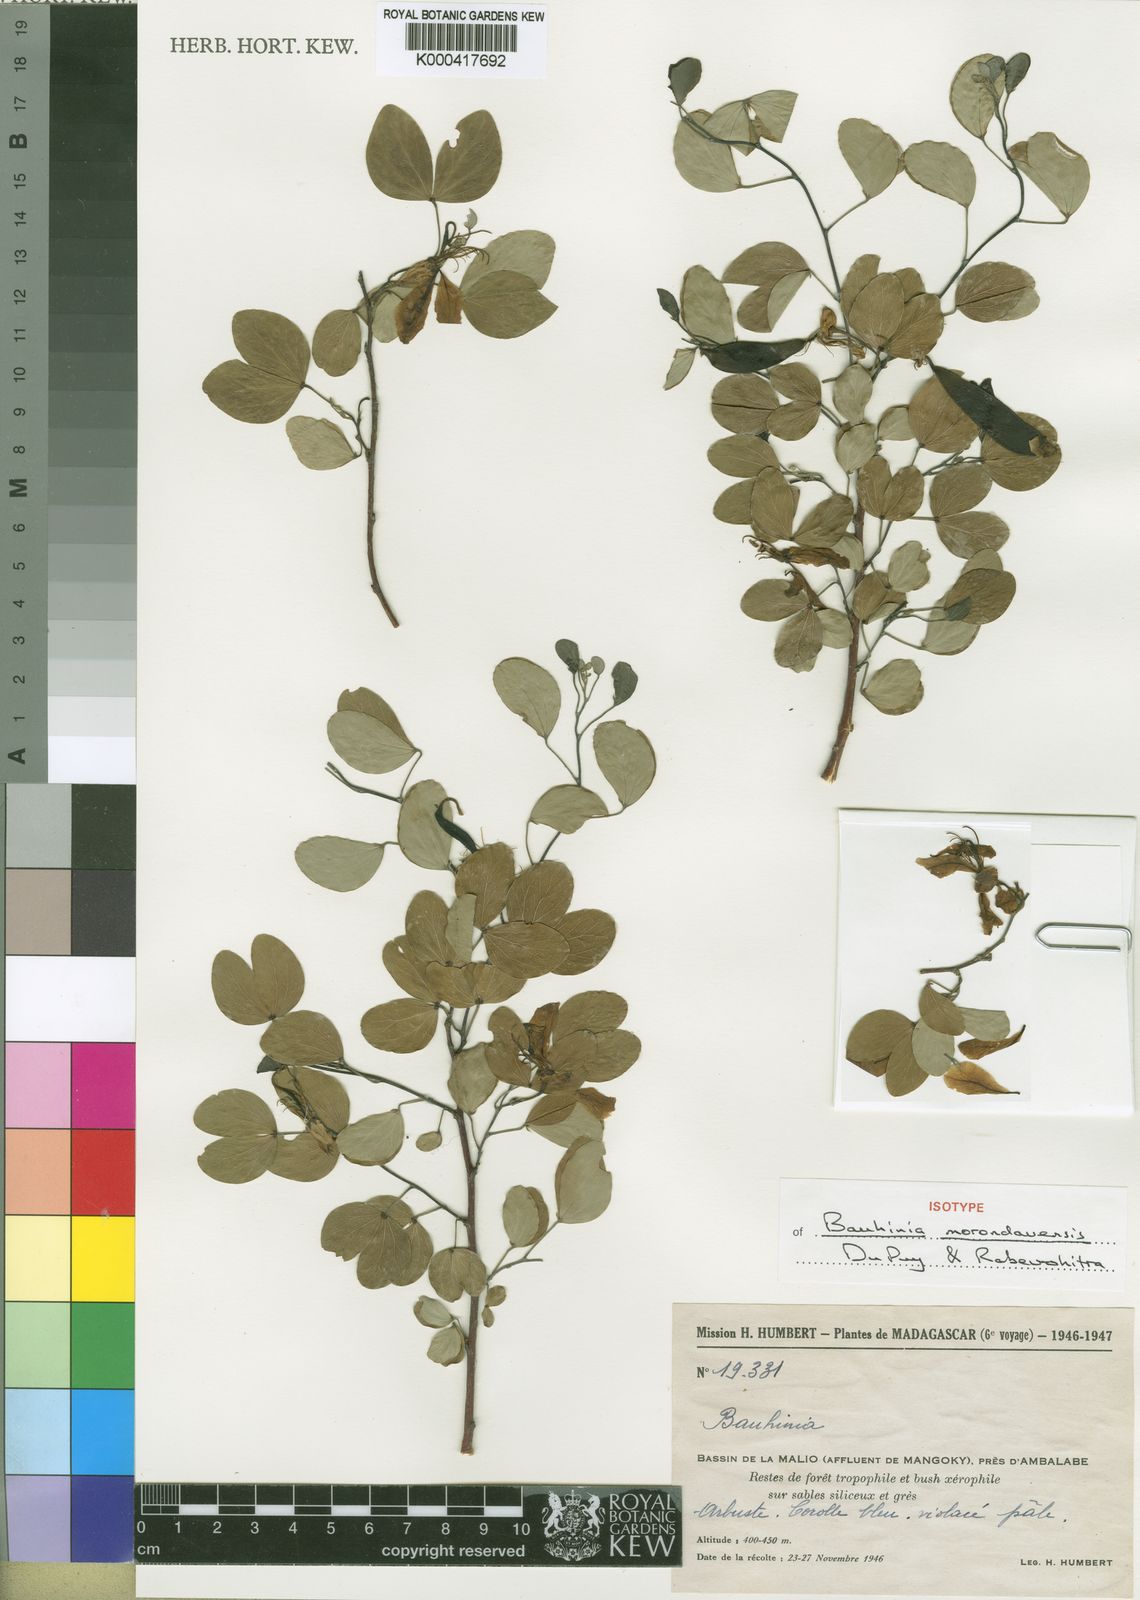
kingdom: Plantae
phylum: Tracheophyta
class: Magnoliopsida
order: Fabales
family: Fabaceae
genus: Bauhinia
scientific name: Bauhinia morondavensis
